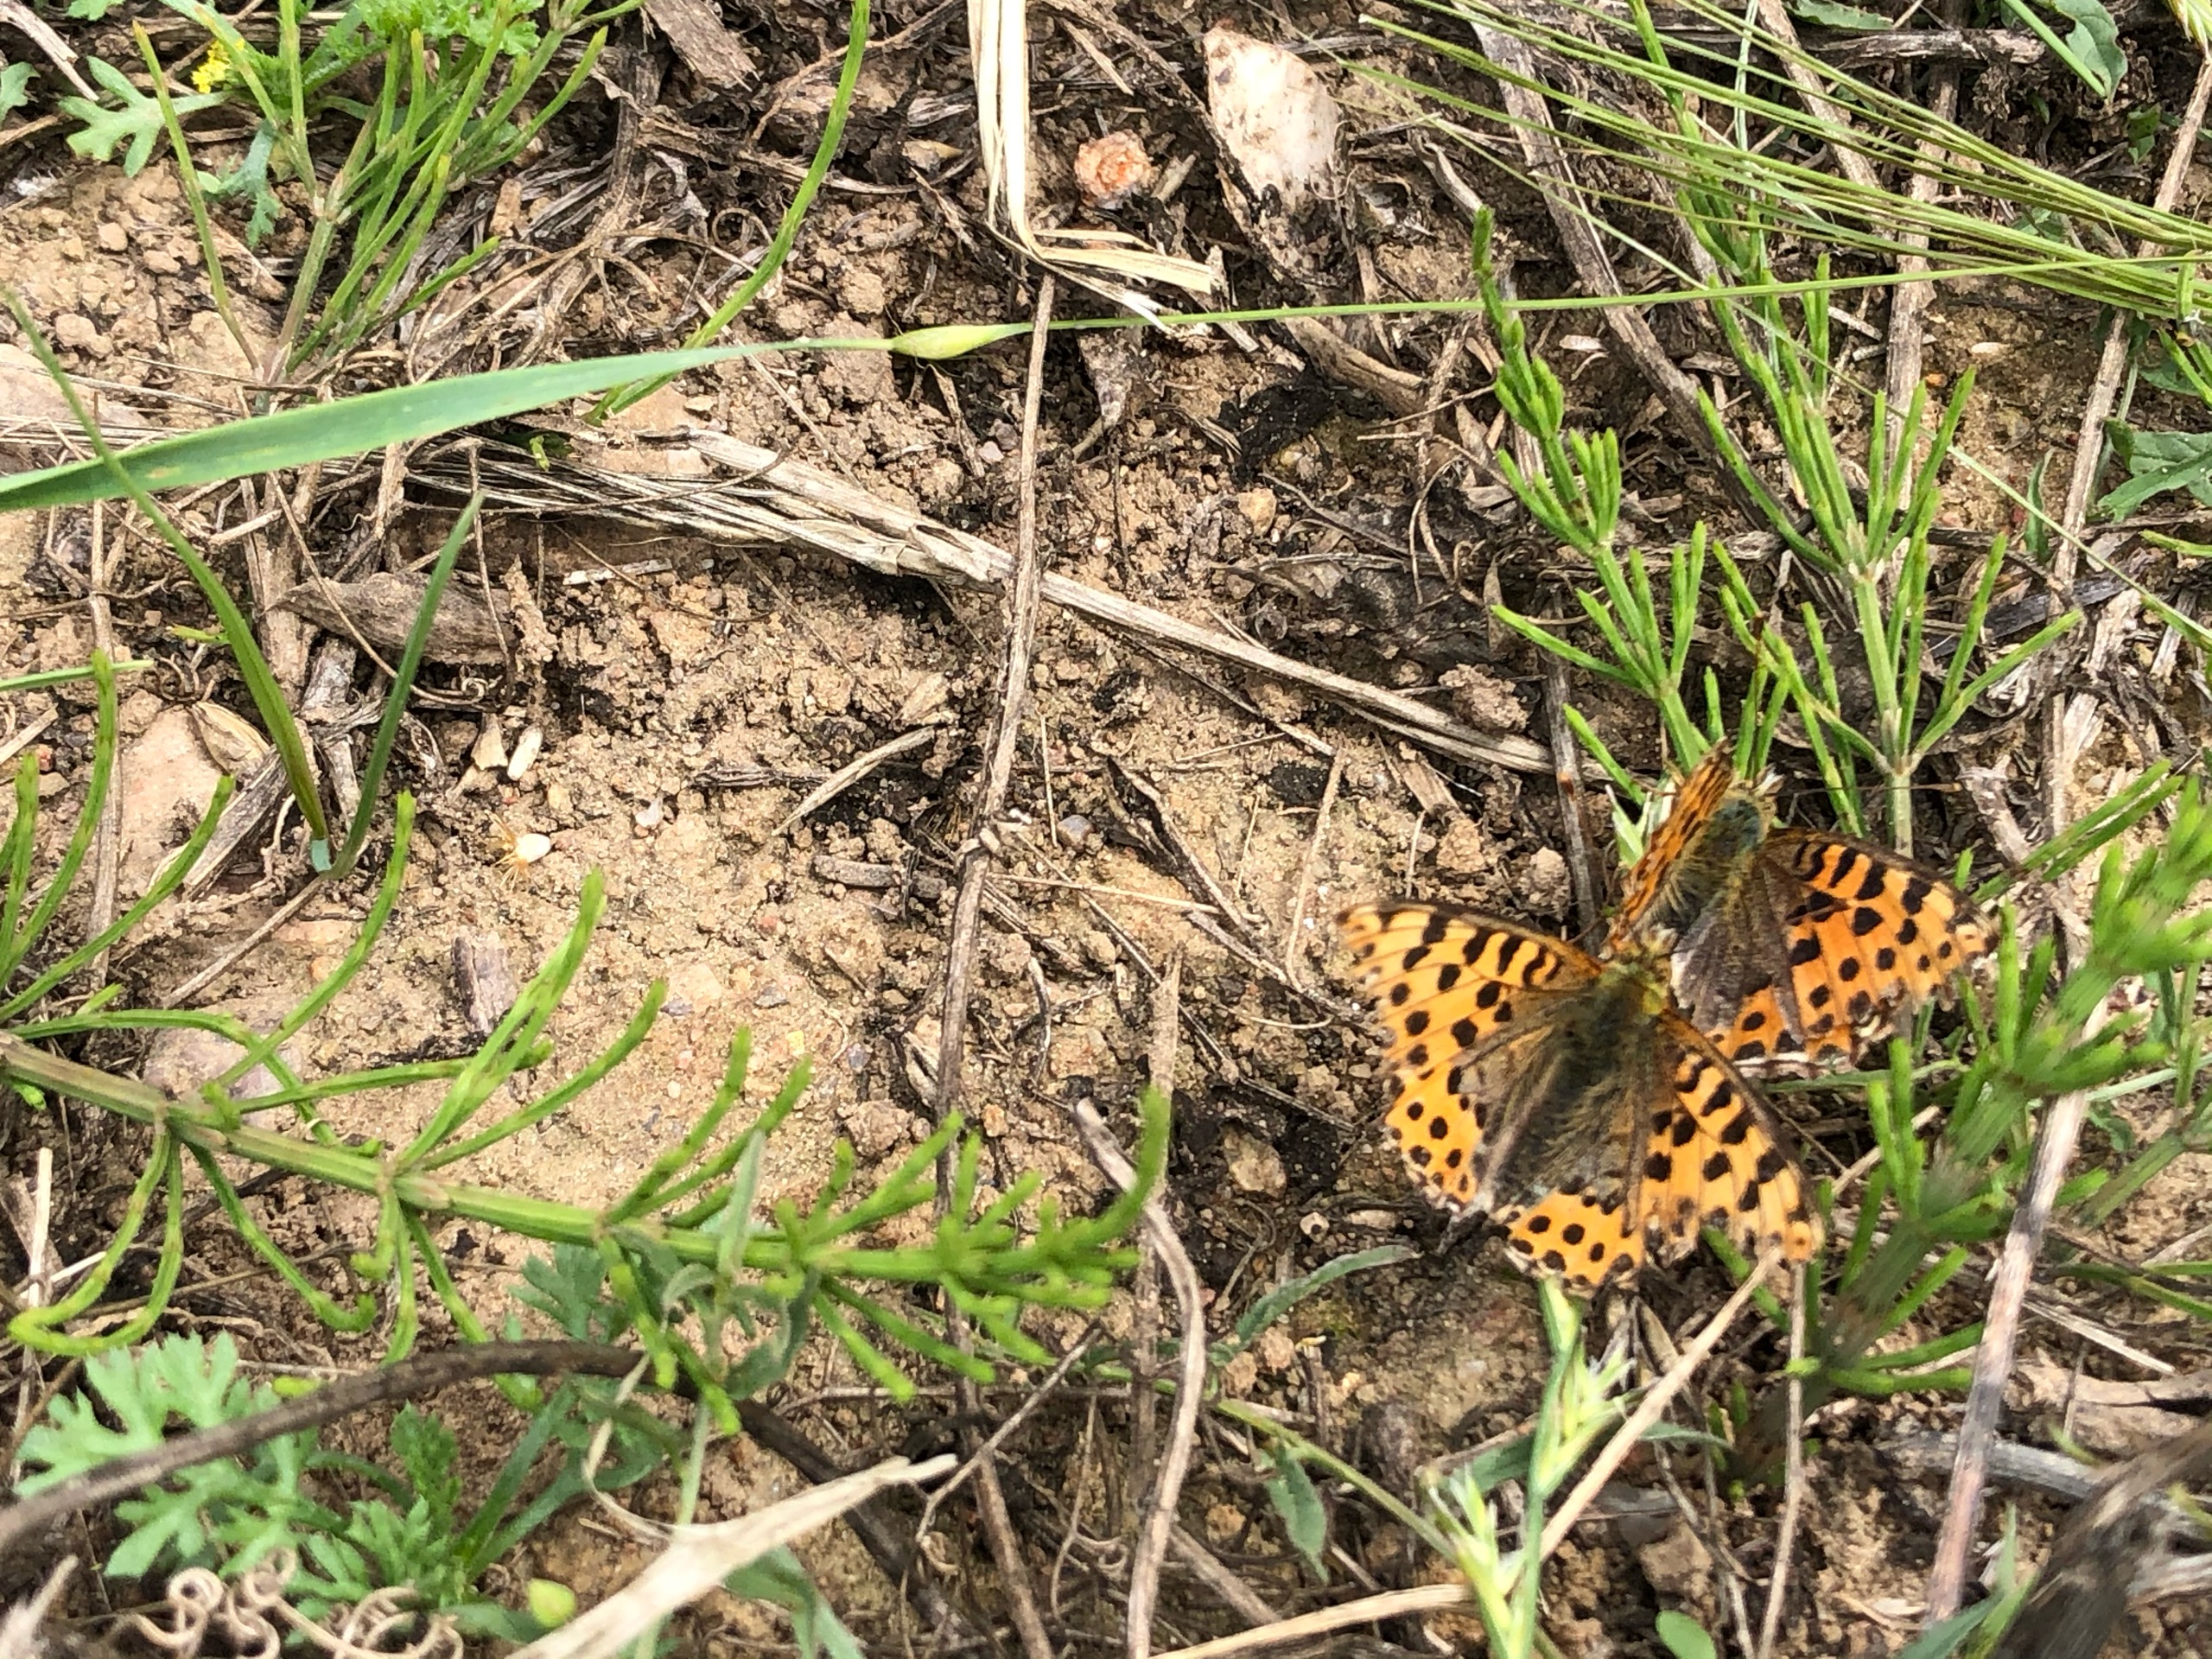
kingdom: Animalia
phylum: Arthropoda
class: Insecta
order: Lepidoptera
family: Nymphalidae
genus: Issoria
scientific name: Issoria lathonia
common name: Storplettet perlemorsommerfugl
